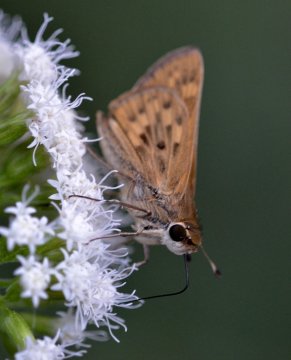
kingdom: Animalia
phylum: Arthropoda
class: Insecta
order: Lepidoptera
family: Hesperiidae
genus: Hylephila
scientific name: Hylephila phyleus
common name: Fiery Skipper
